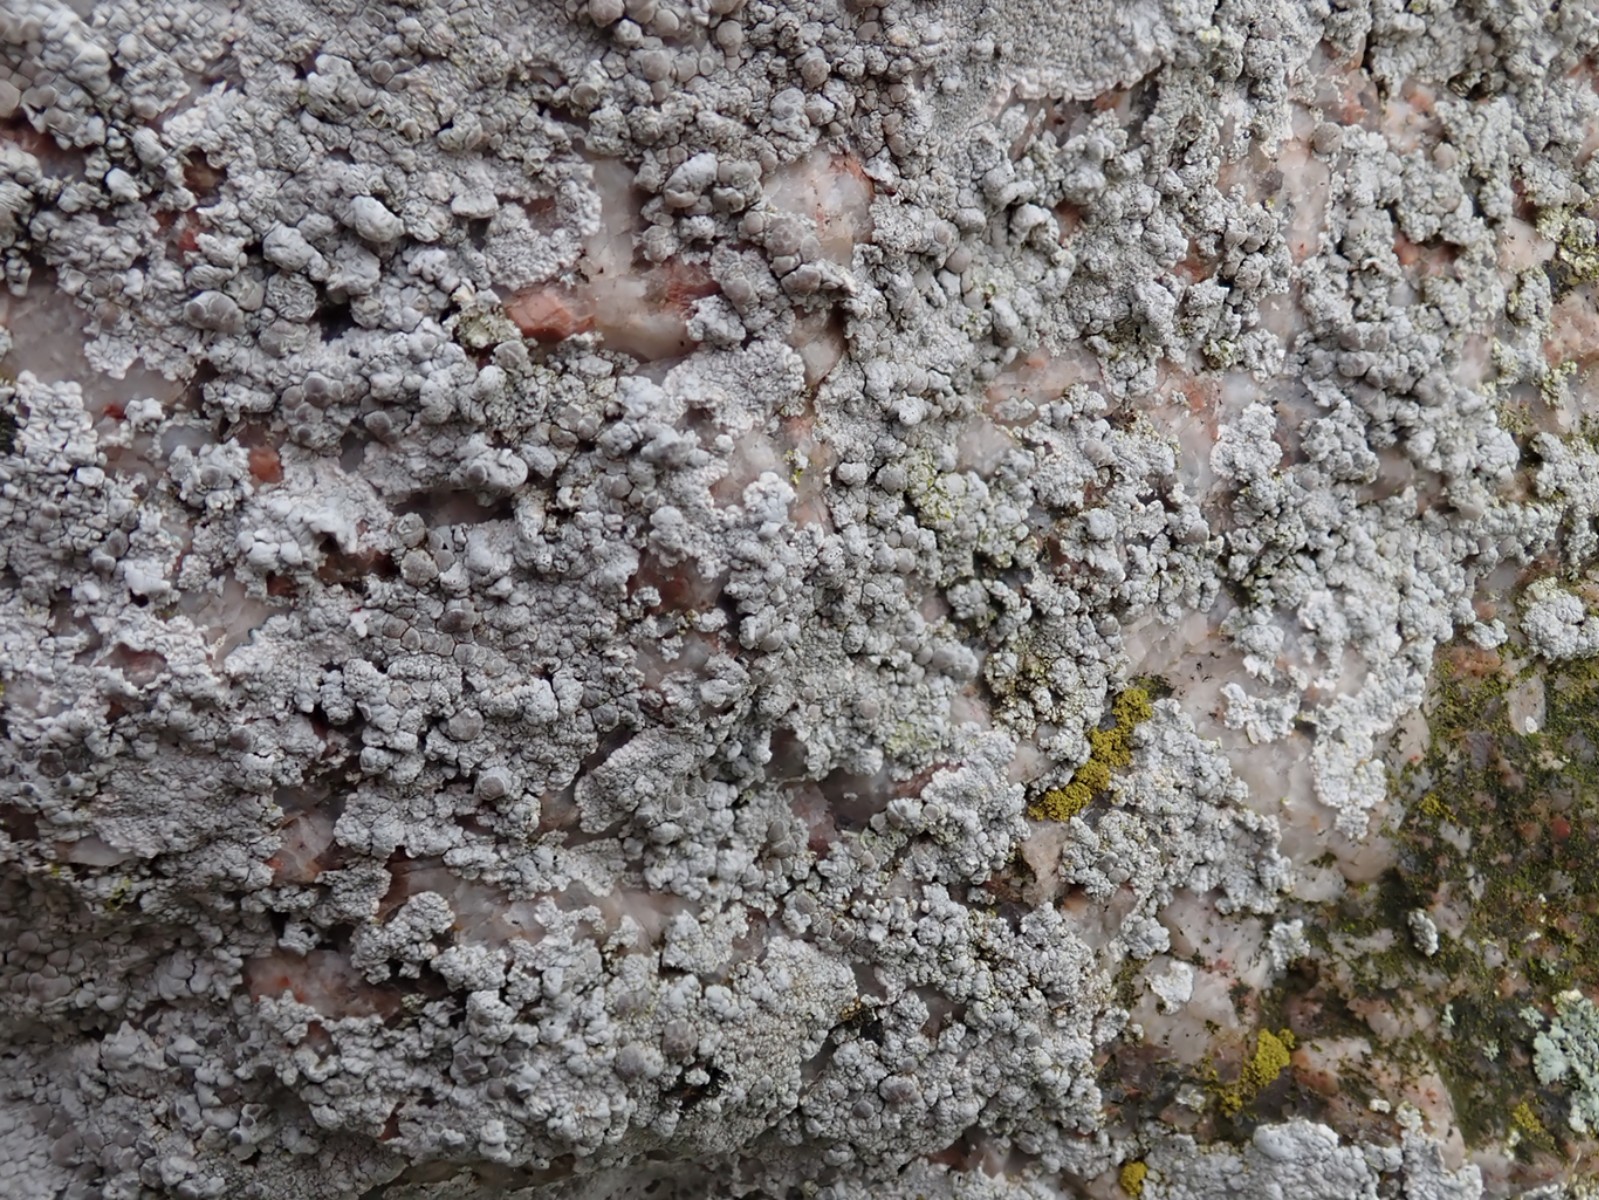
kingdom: Fungi
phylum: Ascomycota
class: Lecanoromycetes
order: Lecanorales
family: Lecanoraceae
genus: Glaucomaria
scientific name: Glaucomaria rupicola
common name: stengærde-kantskivelav
